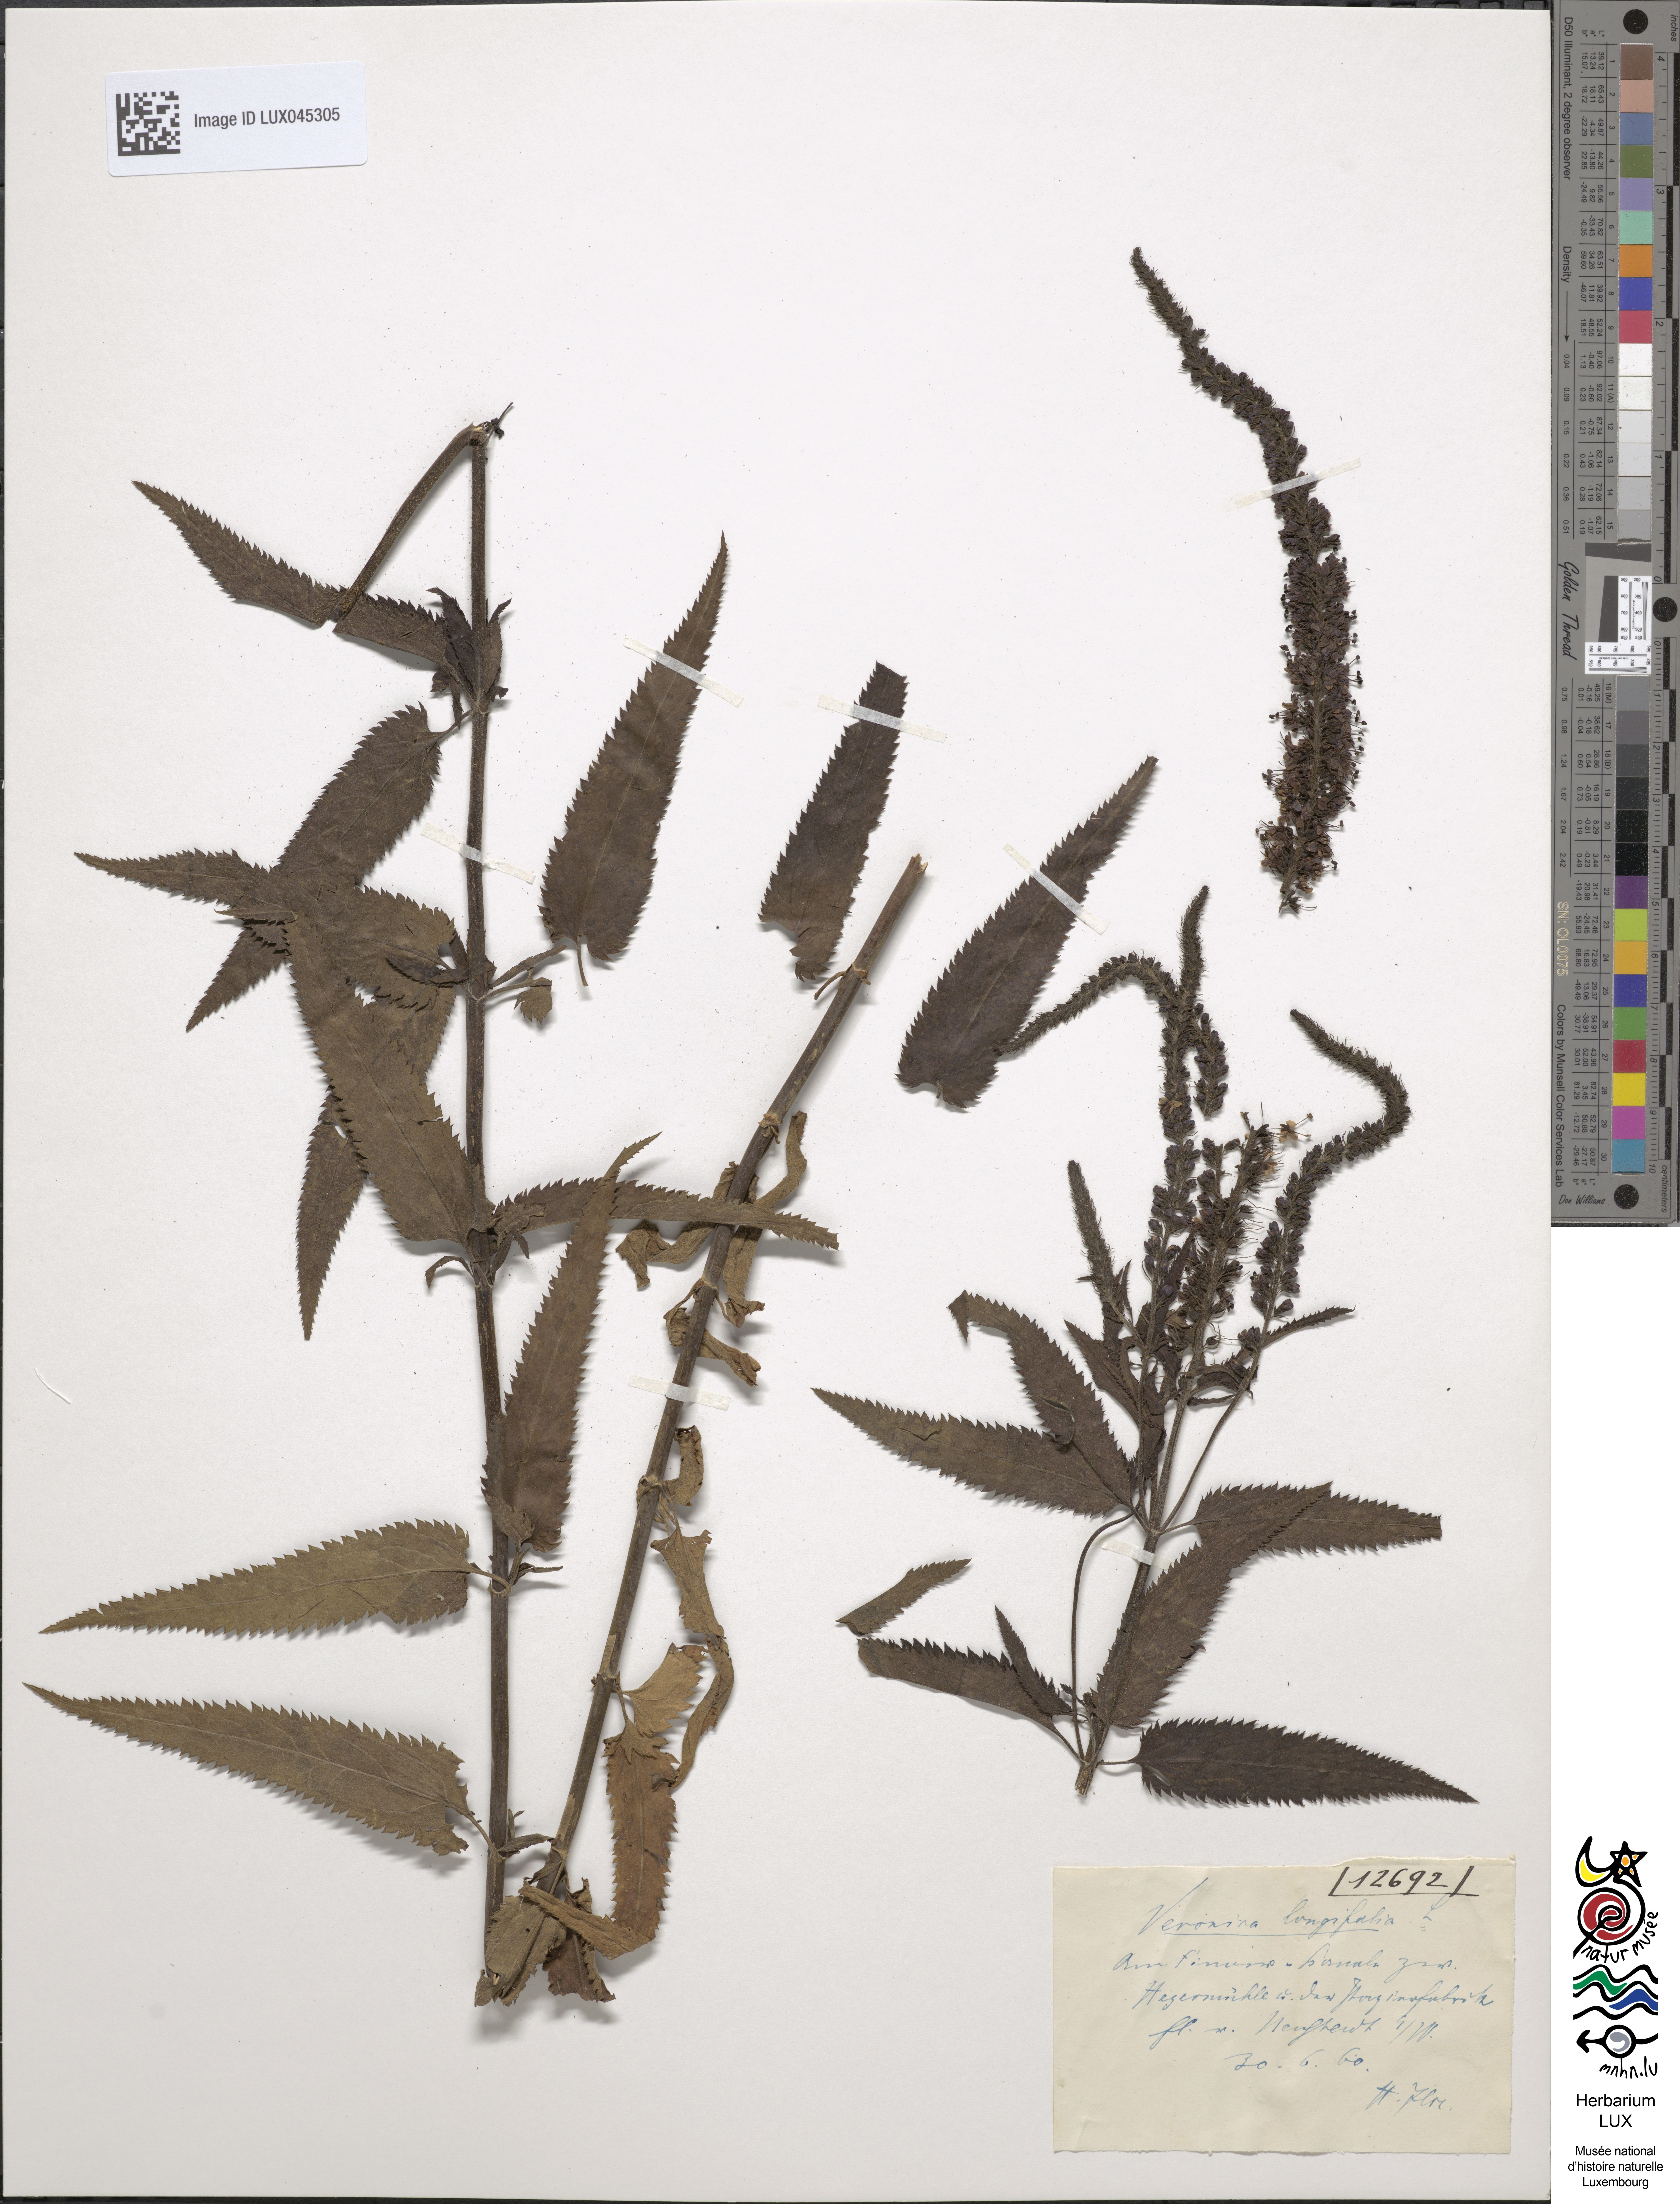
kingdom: Plantae
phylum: Tracheophyta
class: Magnoliopsida
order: Lamiales
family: Plantaginaceae
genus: Veronica
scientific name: Veronica longifolia
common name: Garden speedwell
